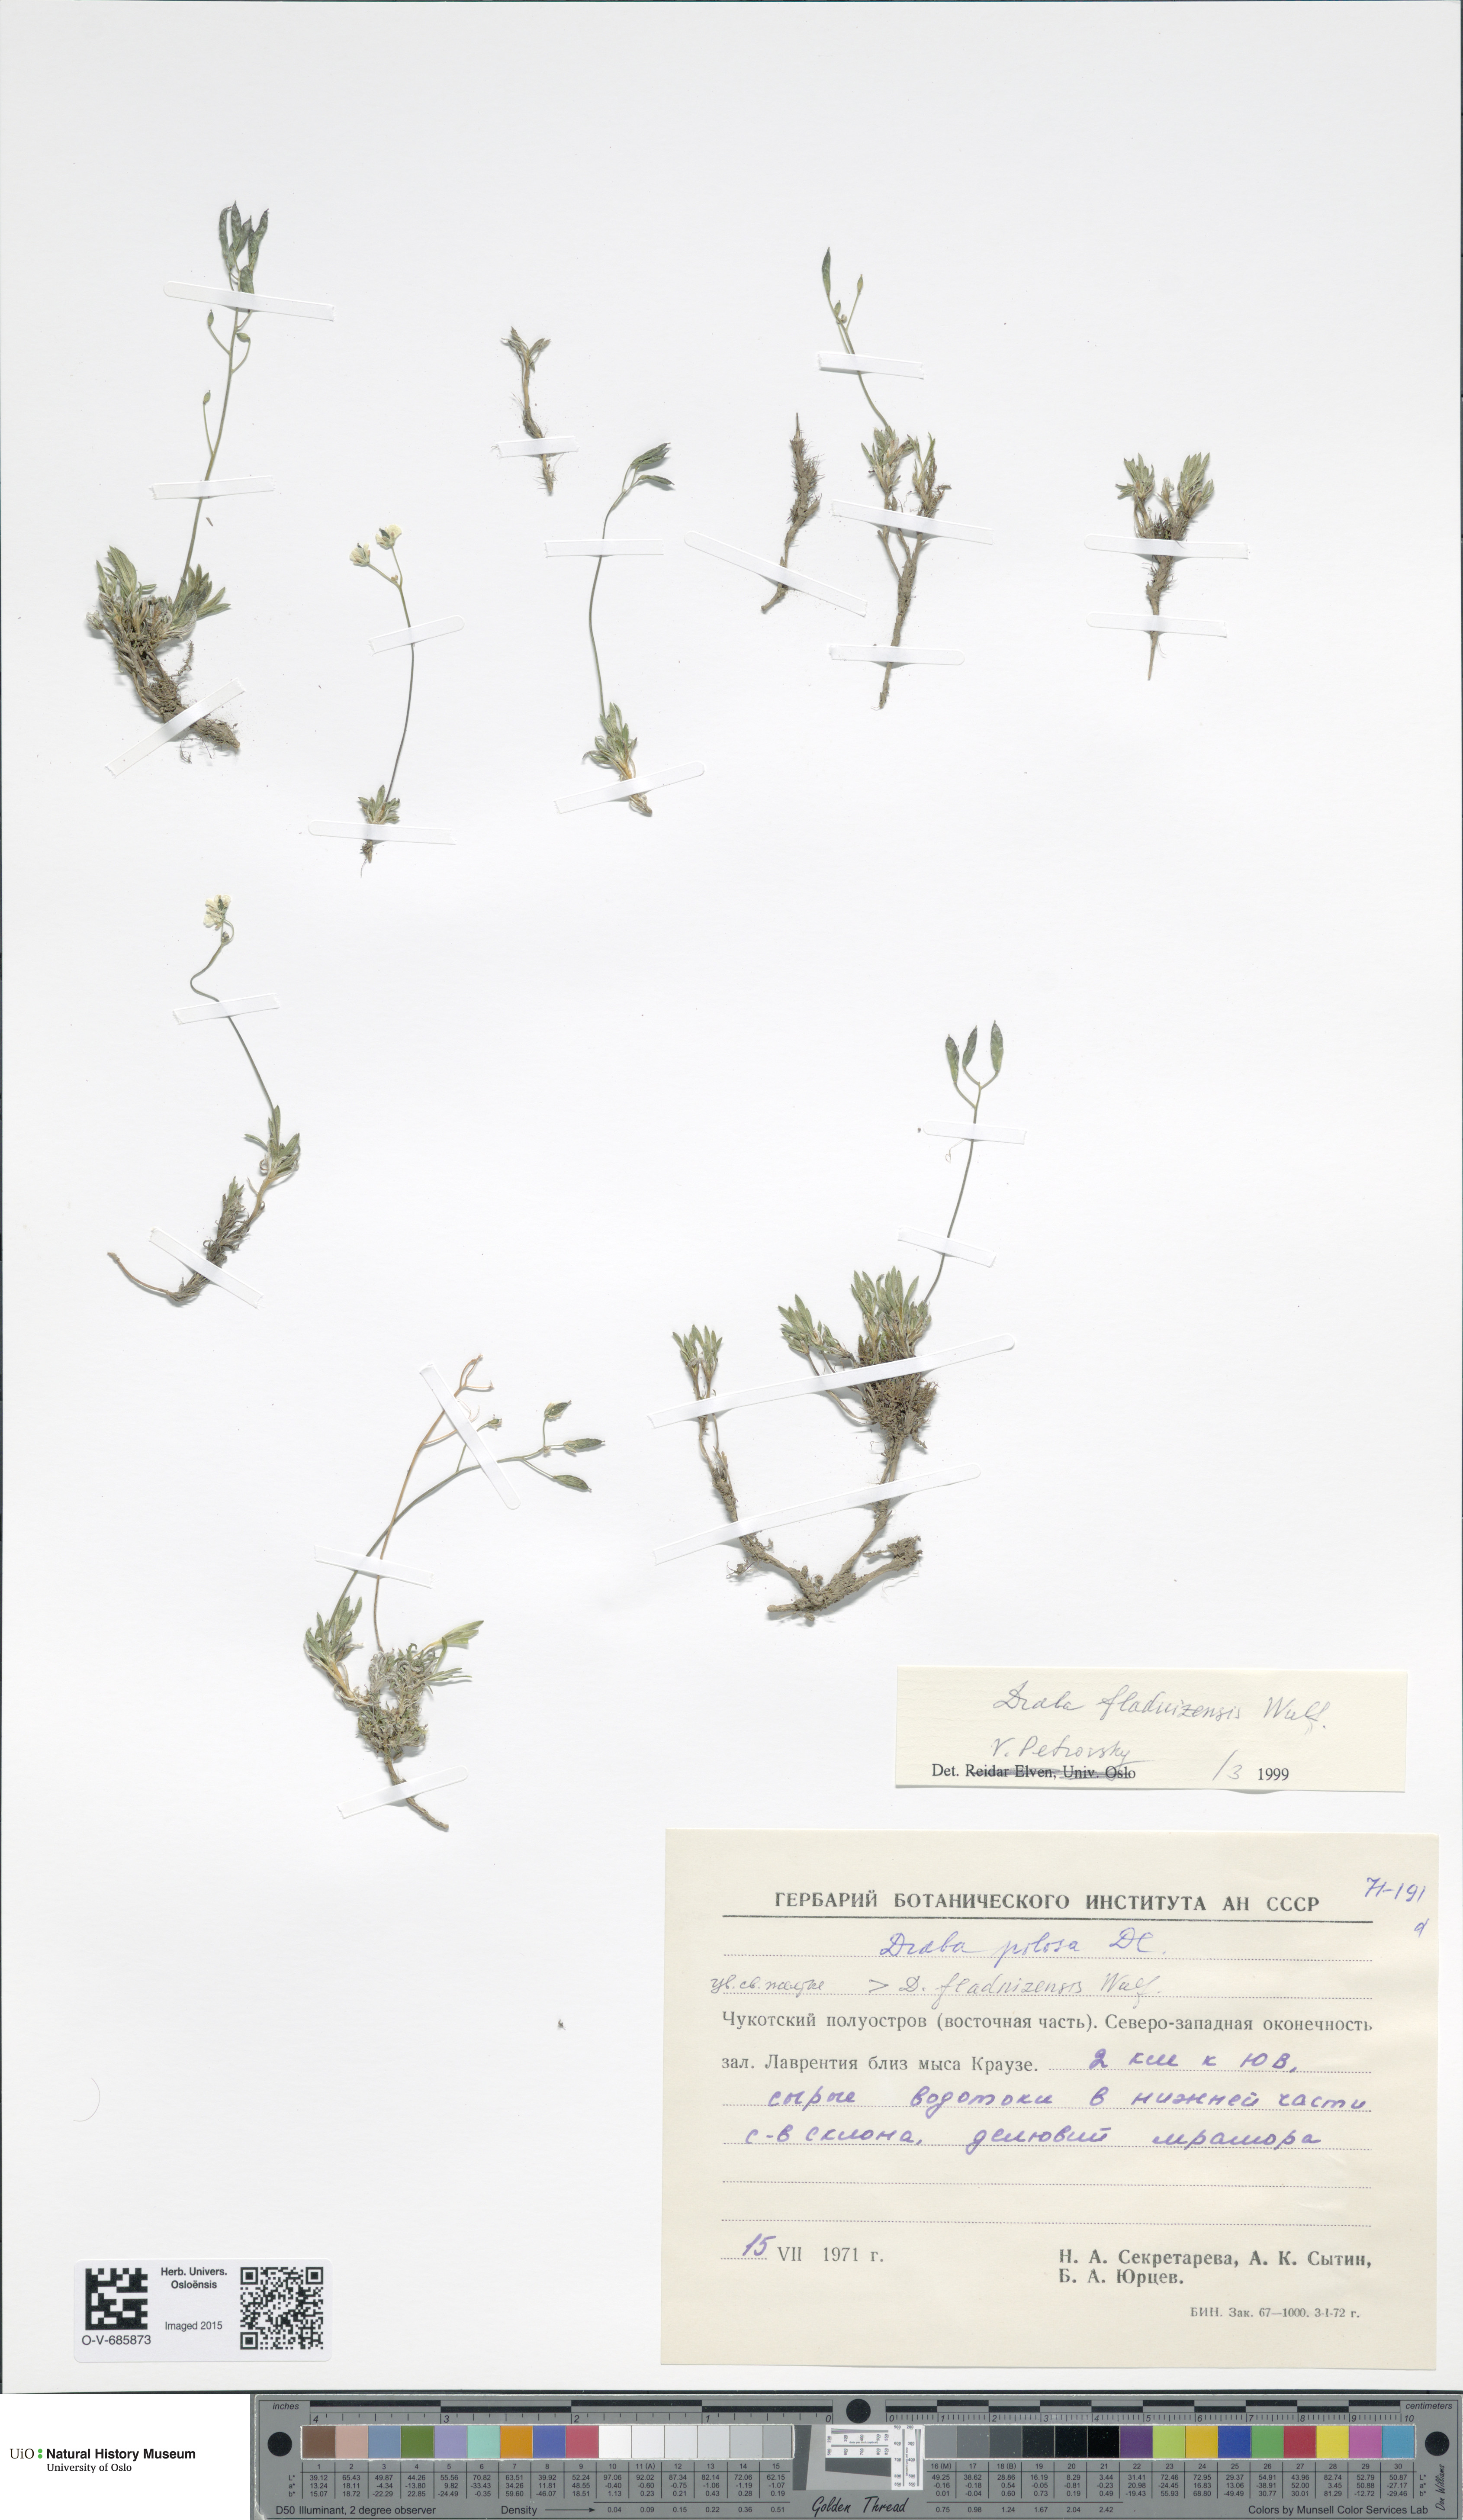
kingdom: Plantae
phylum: Tracheophyta
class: Magnoliopsida
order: Brassicales
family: Brassicaceae
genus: Draba
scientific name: Draba pilosa
